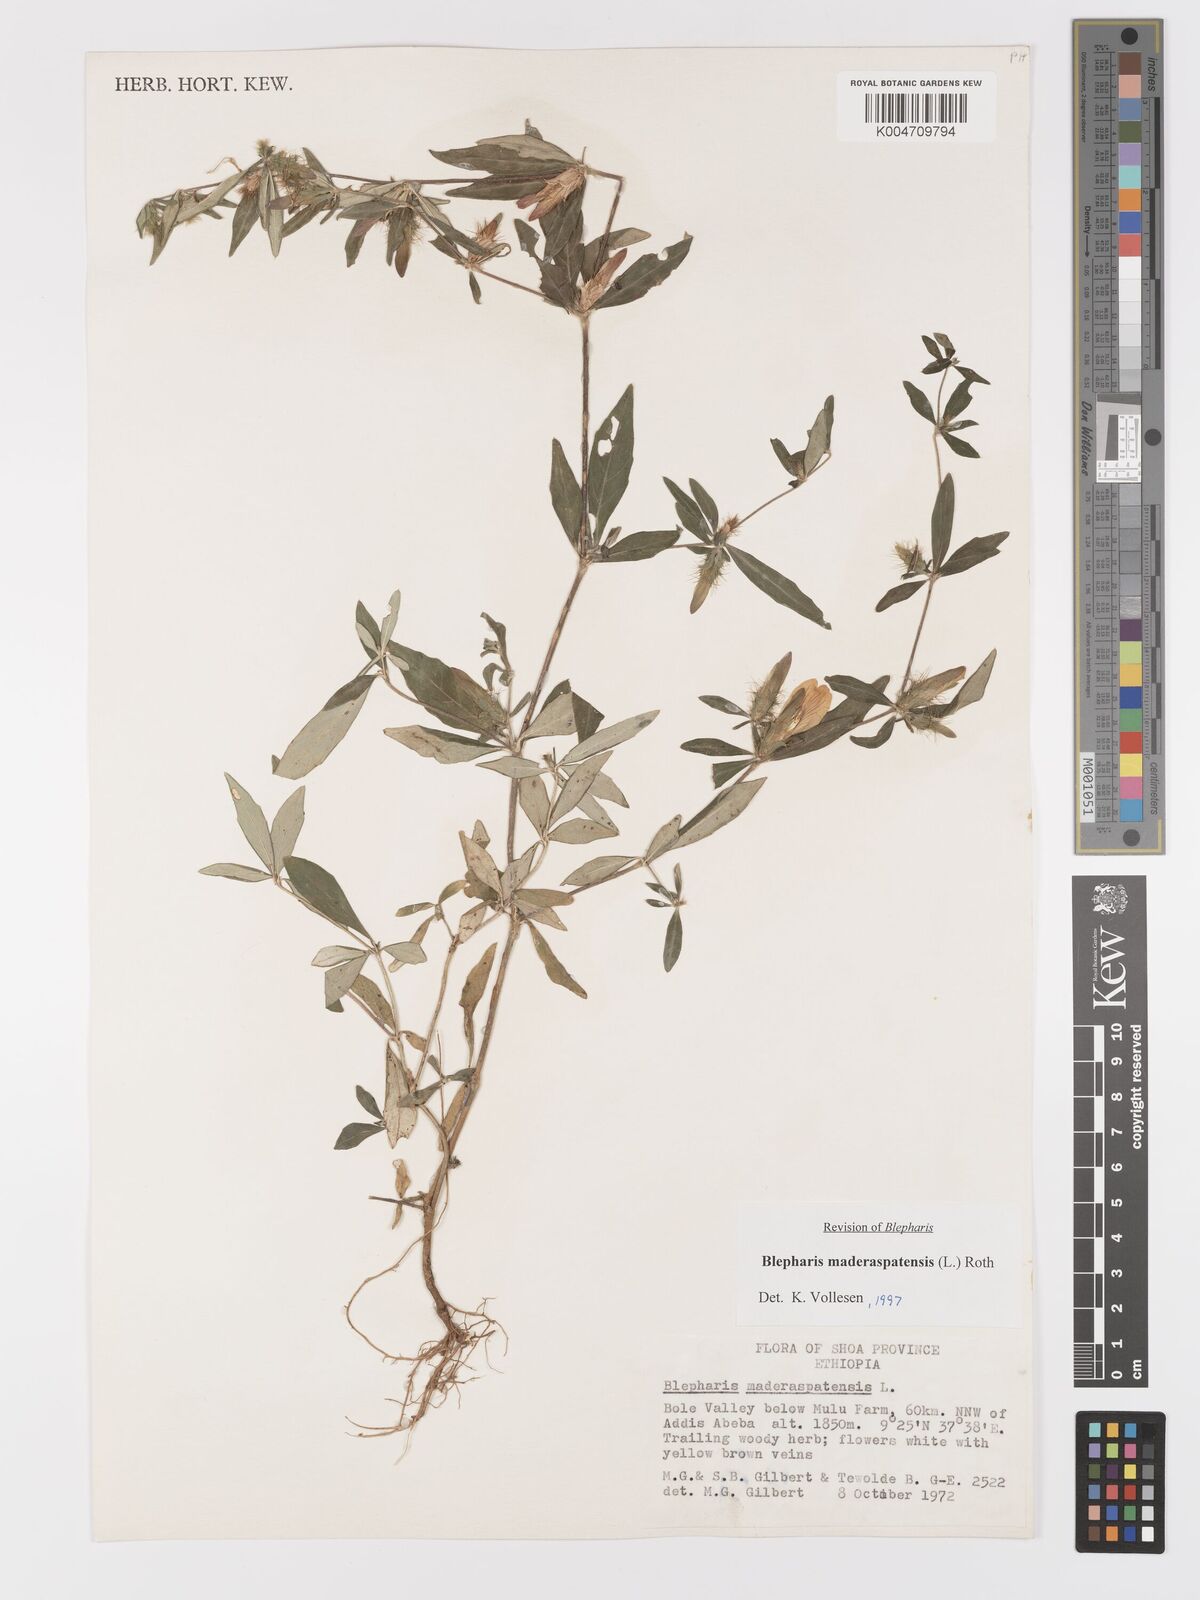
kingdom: Plantae
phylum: Tracheophyta
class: Magnoliopsida
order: Lamiales
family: Acanthaceae
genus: Blepharis
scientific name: Blepharis maderaspatensis
